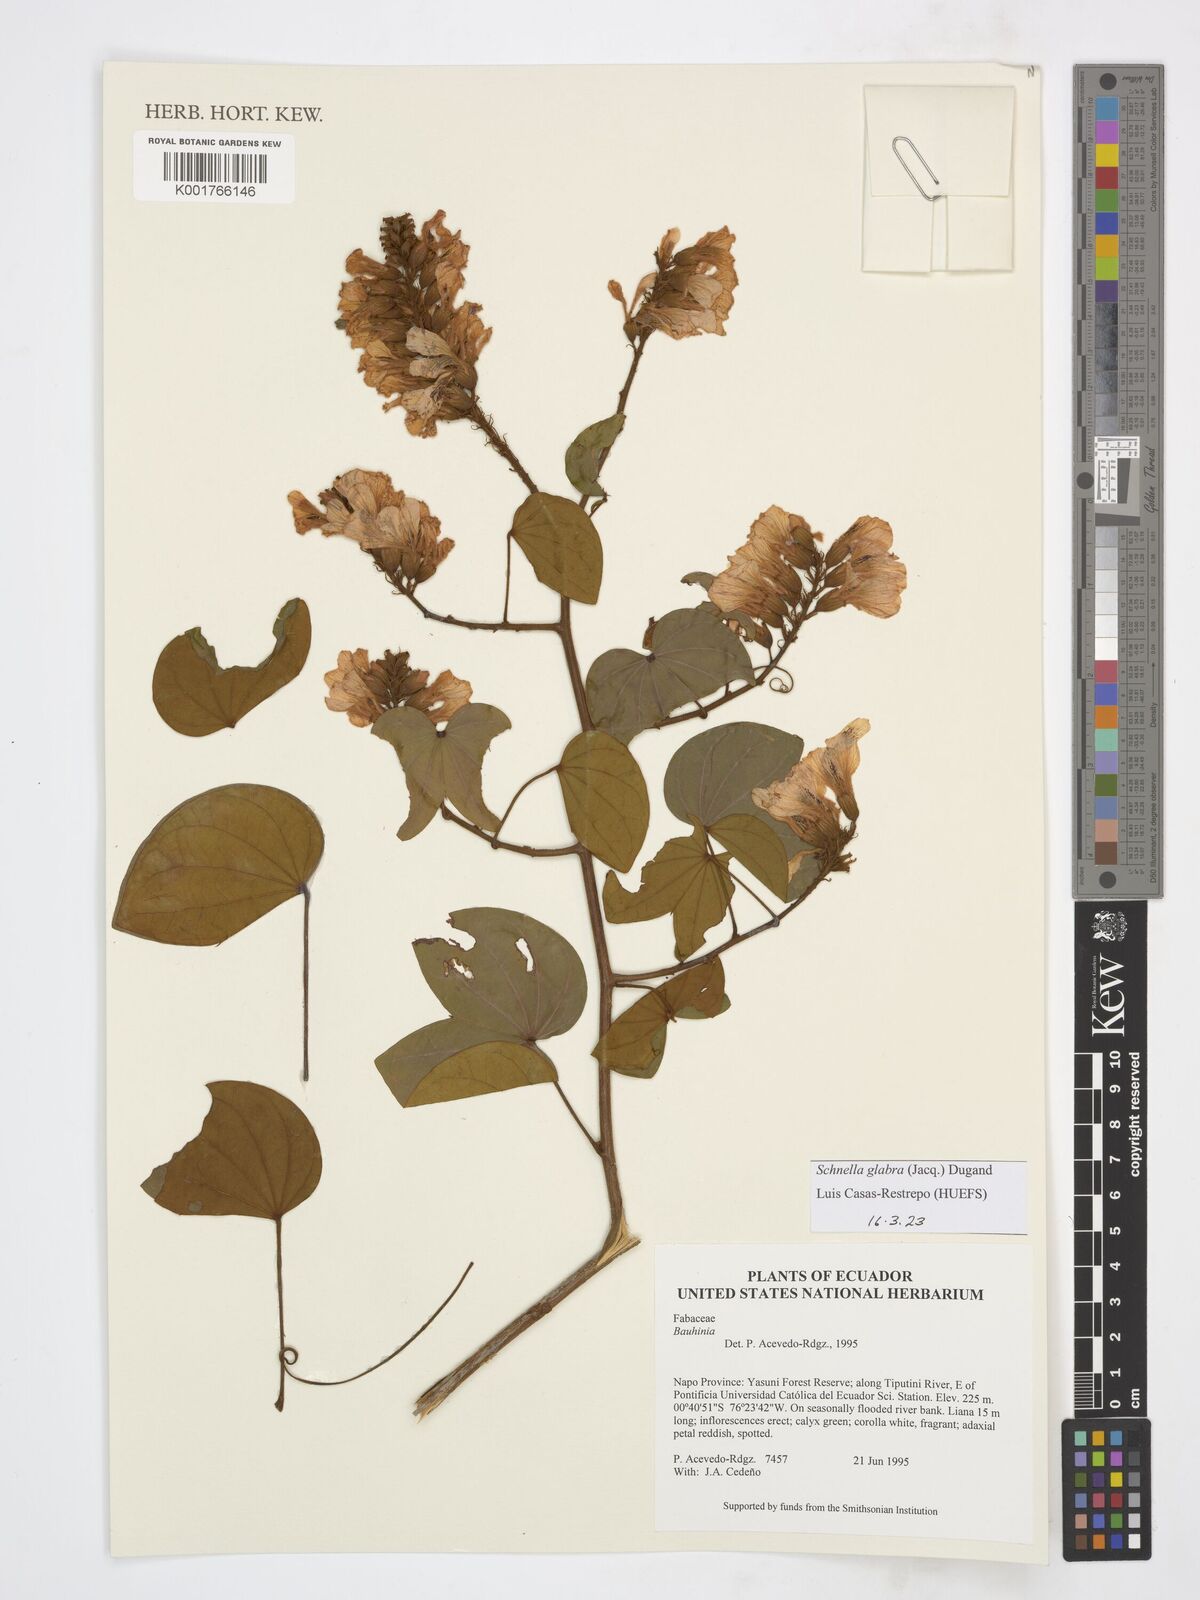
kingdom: Plantae
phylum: Tracheophyta
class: Magnoliopsida
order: Fabales
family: Fabaceae
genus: Schnella
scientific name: Schnella glabra
